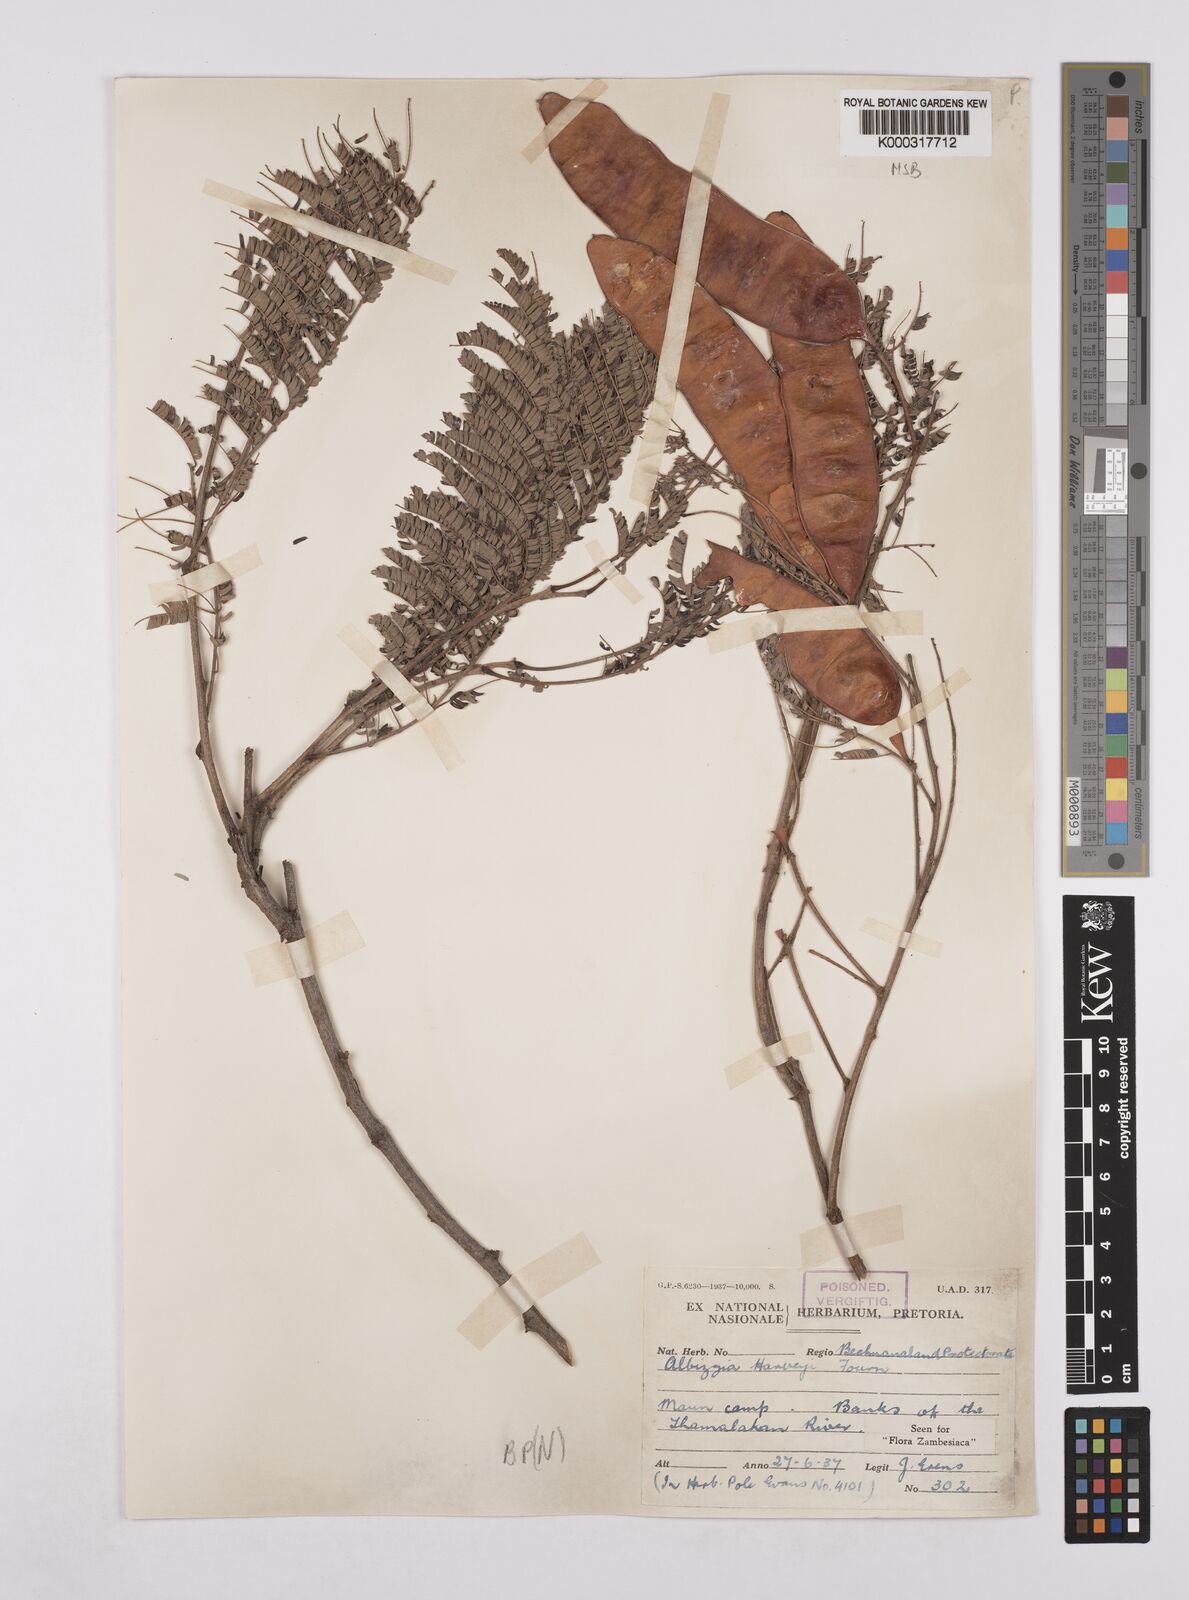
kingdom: Plantae
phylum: Tracheophyta
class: Magnoliopsida
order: Fabales
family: Fabaceae
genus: Albizia
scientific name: Albizia harveyi
